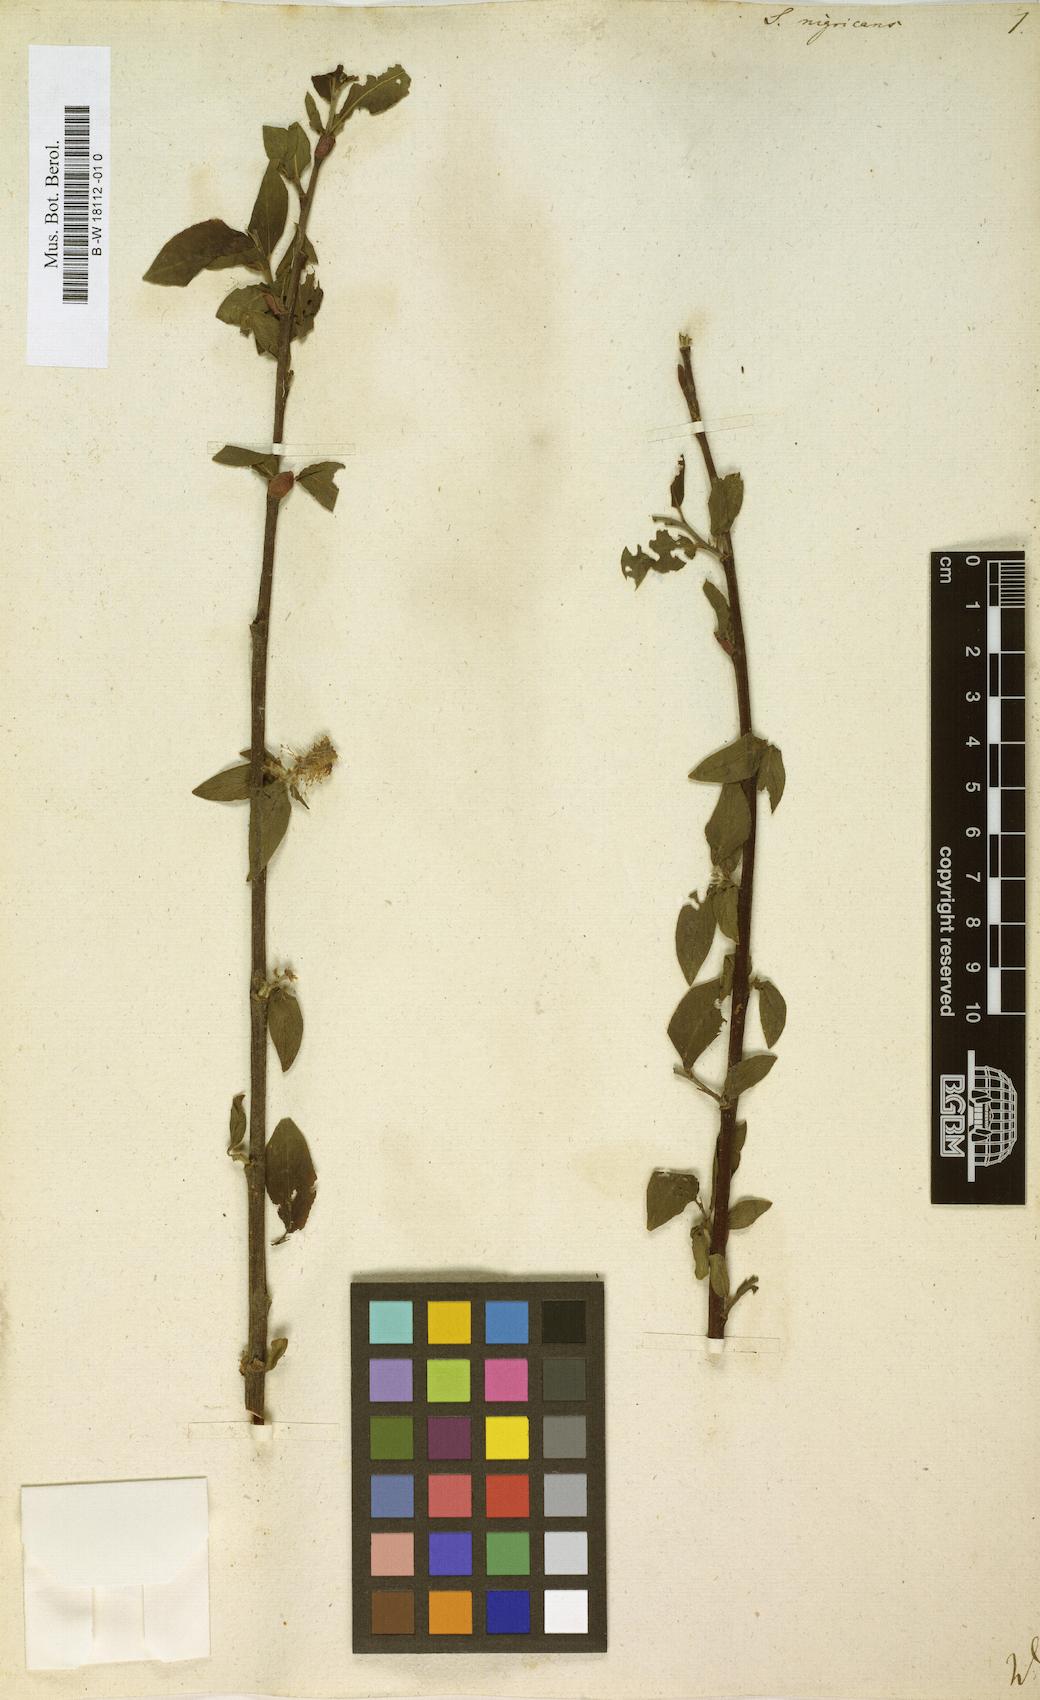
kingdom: Plantae
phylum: Tracheophyta
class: Magnoliopsida
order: Malpighiales
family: Salicaceae
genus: Salix
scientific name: Salix myrsinifolia
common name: Dark-leaved willow
